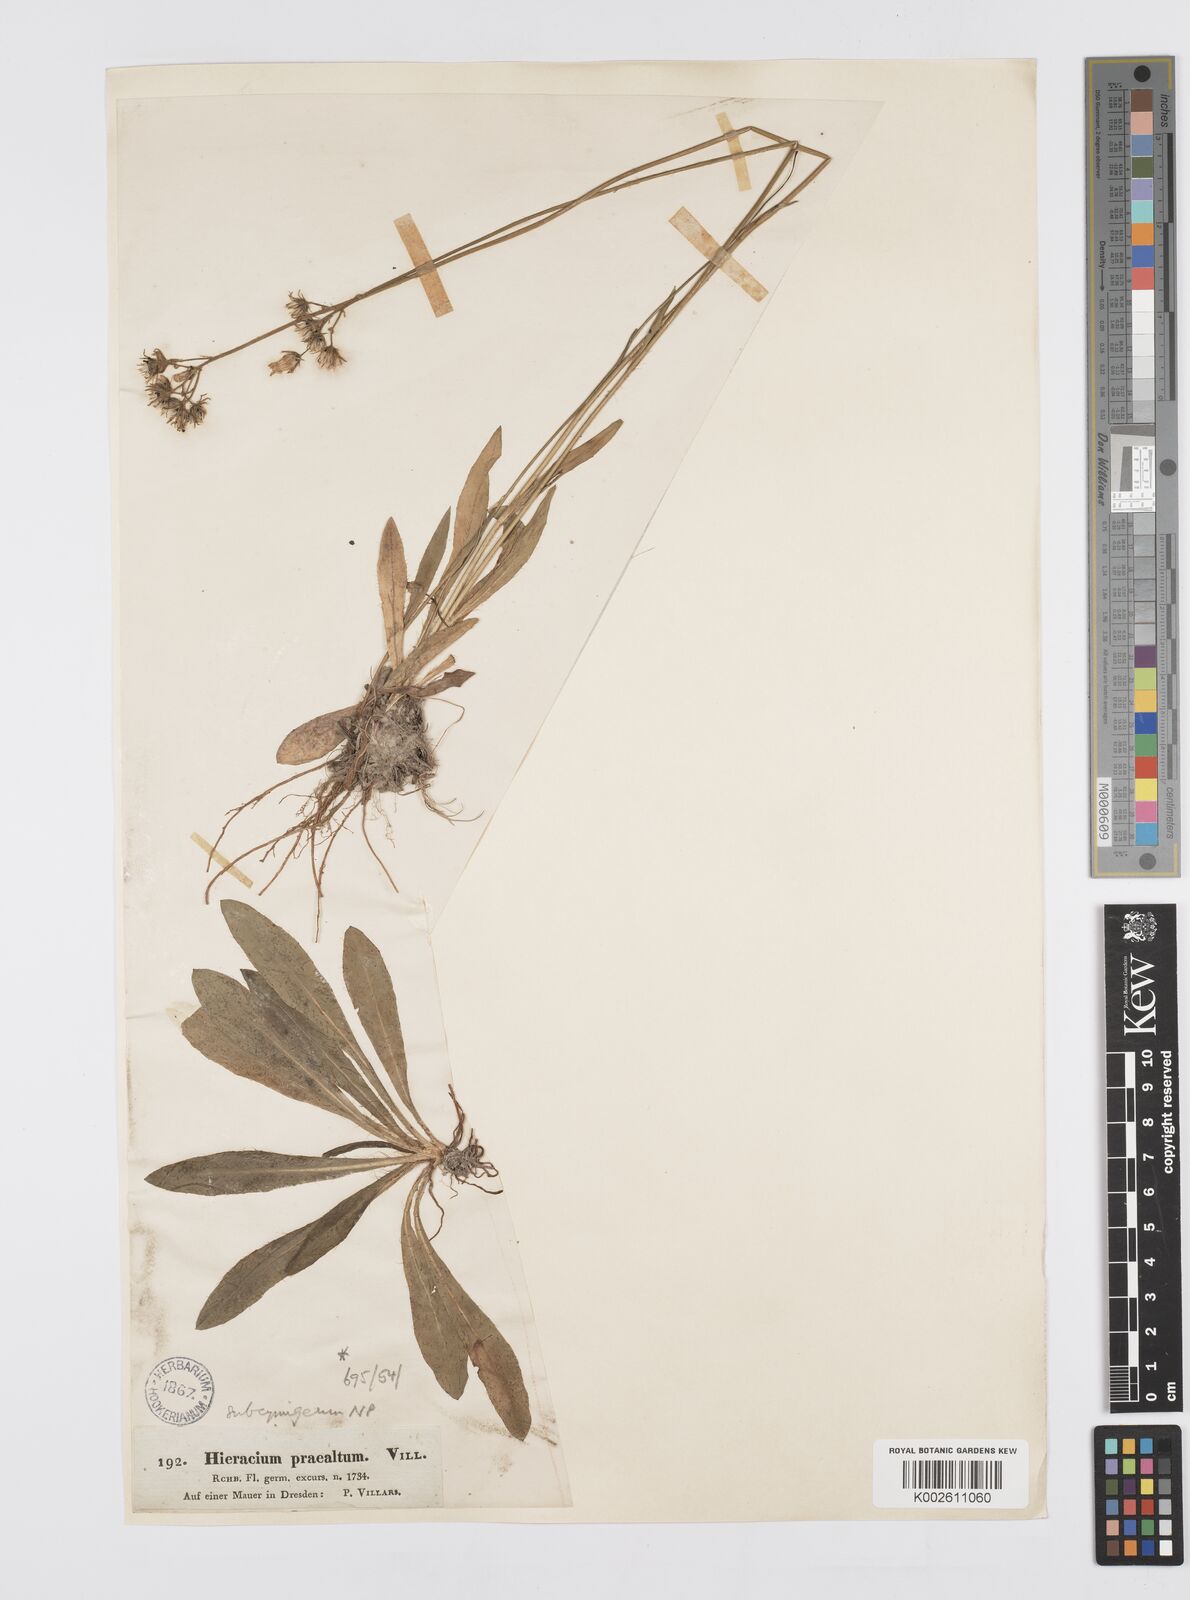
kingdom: Plantae
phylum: Tracheophyta
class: Magnoliopsida
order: Asterales
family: Asteraceae
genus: Pilosella
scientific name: Pilosella piloselloides
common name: Glaucous king-devil
